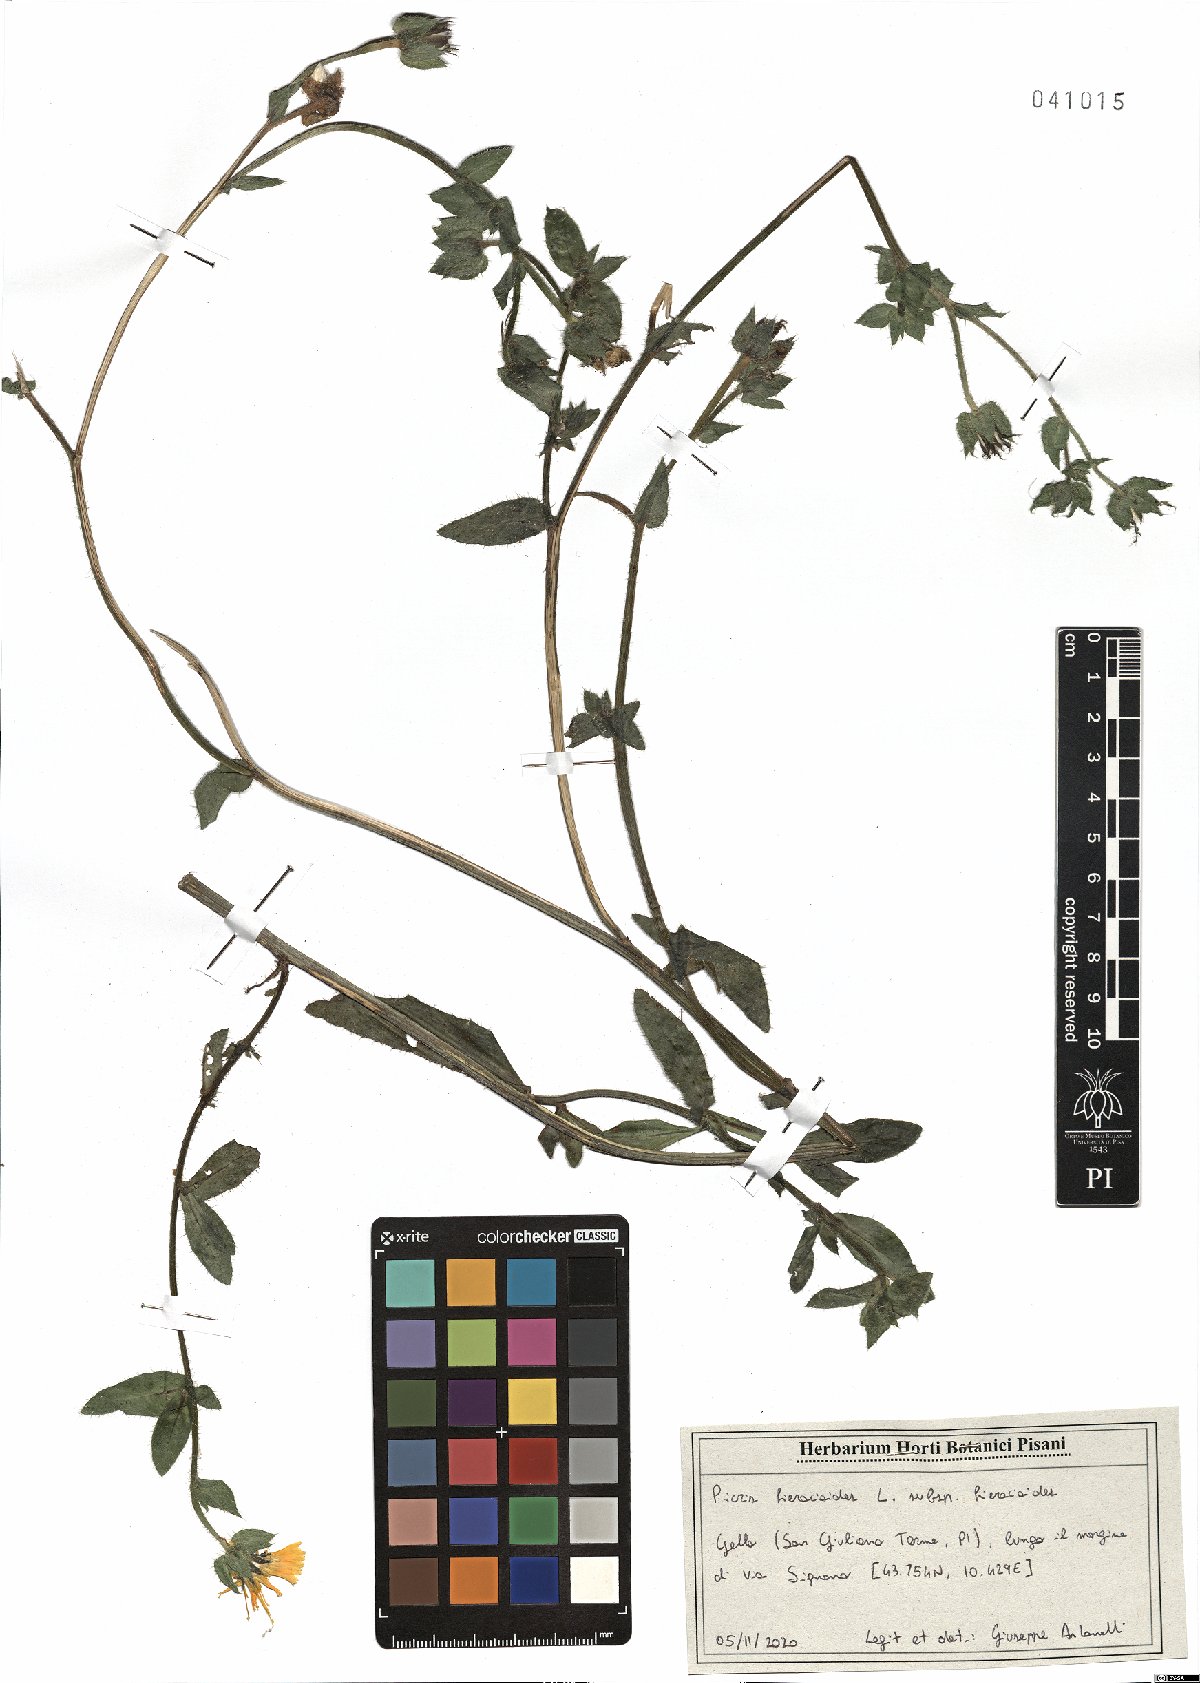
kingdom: Plantae
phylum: Tracheophyta
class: Magnoliopsida
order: Asterales
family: Asteraceae
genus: Picris
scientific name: Picris hieracioides
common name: Hawkweed oxtongue
